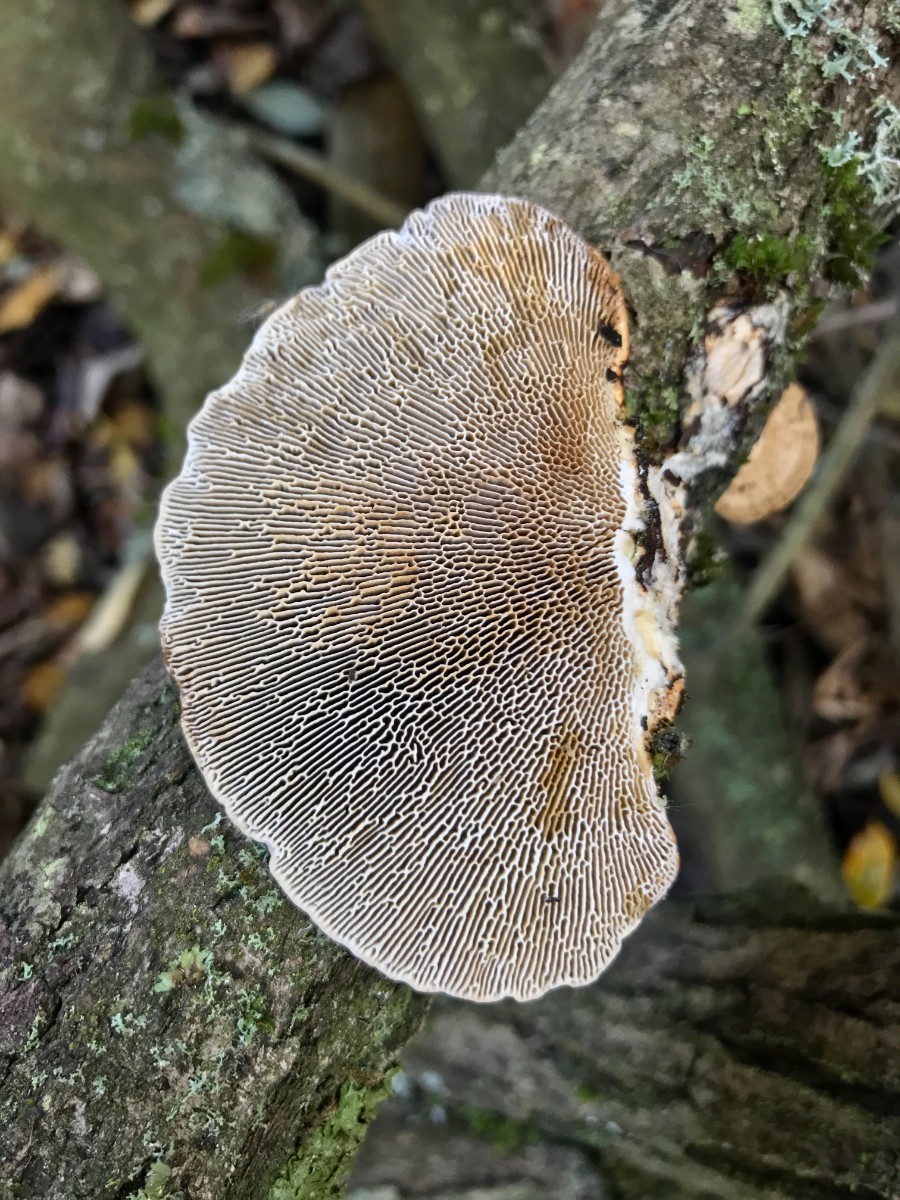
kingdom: Fungi
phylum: Basidiomycota
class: Agaricomycetes
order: Polyporales
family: Polyporaceae
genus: Daedaleopsis
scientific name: Daedaleopsis confragosa
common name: rødmende læderporesvamp
